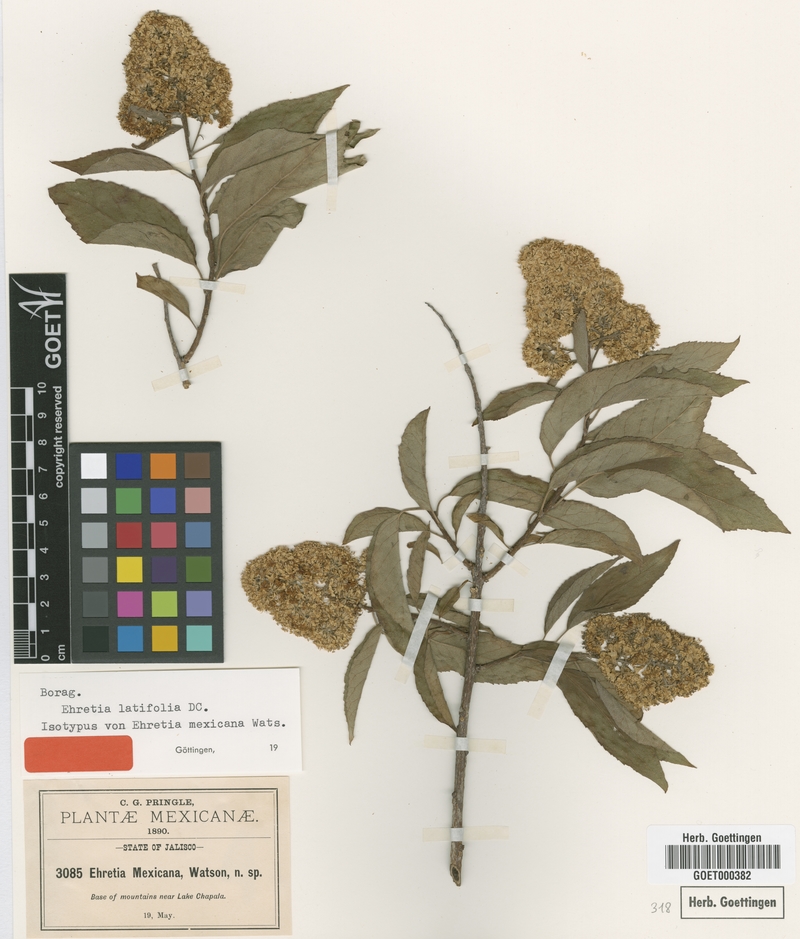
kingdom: Plantae
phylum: Tracheophyta
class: Magnoliopsida
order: Boraginales
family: Ehretiaceae
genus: Ehretia
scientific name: Ehretia latifolia
